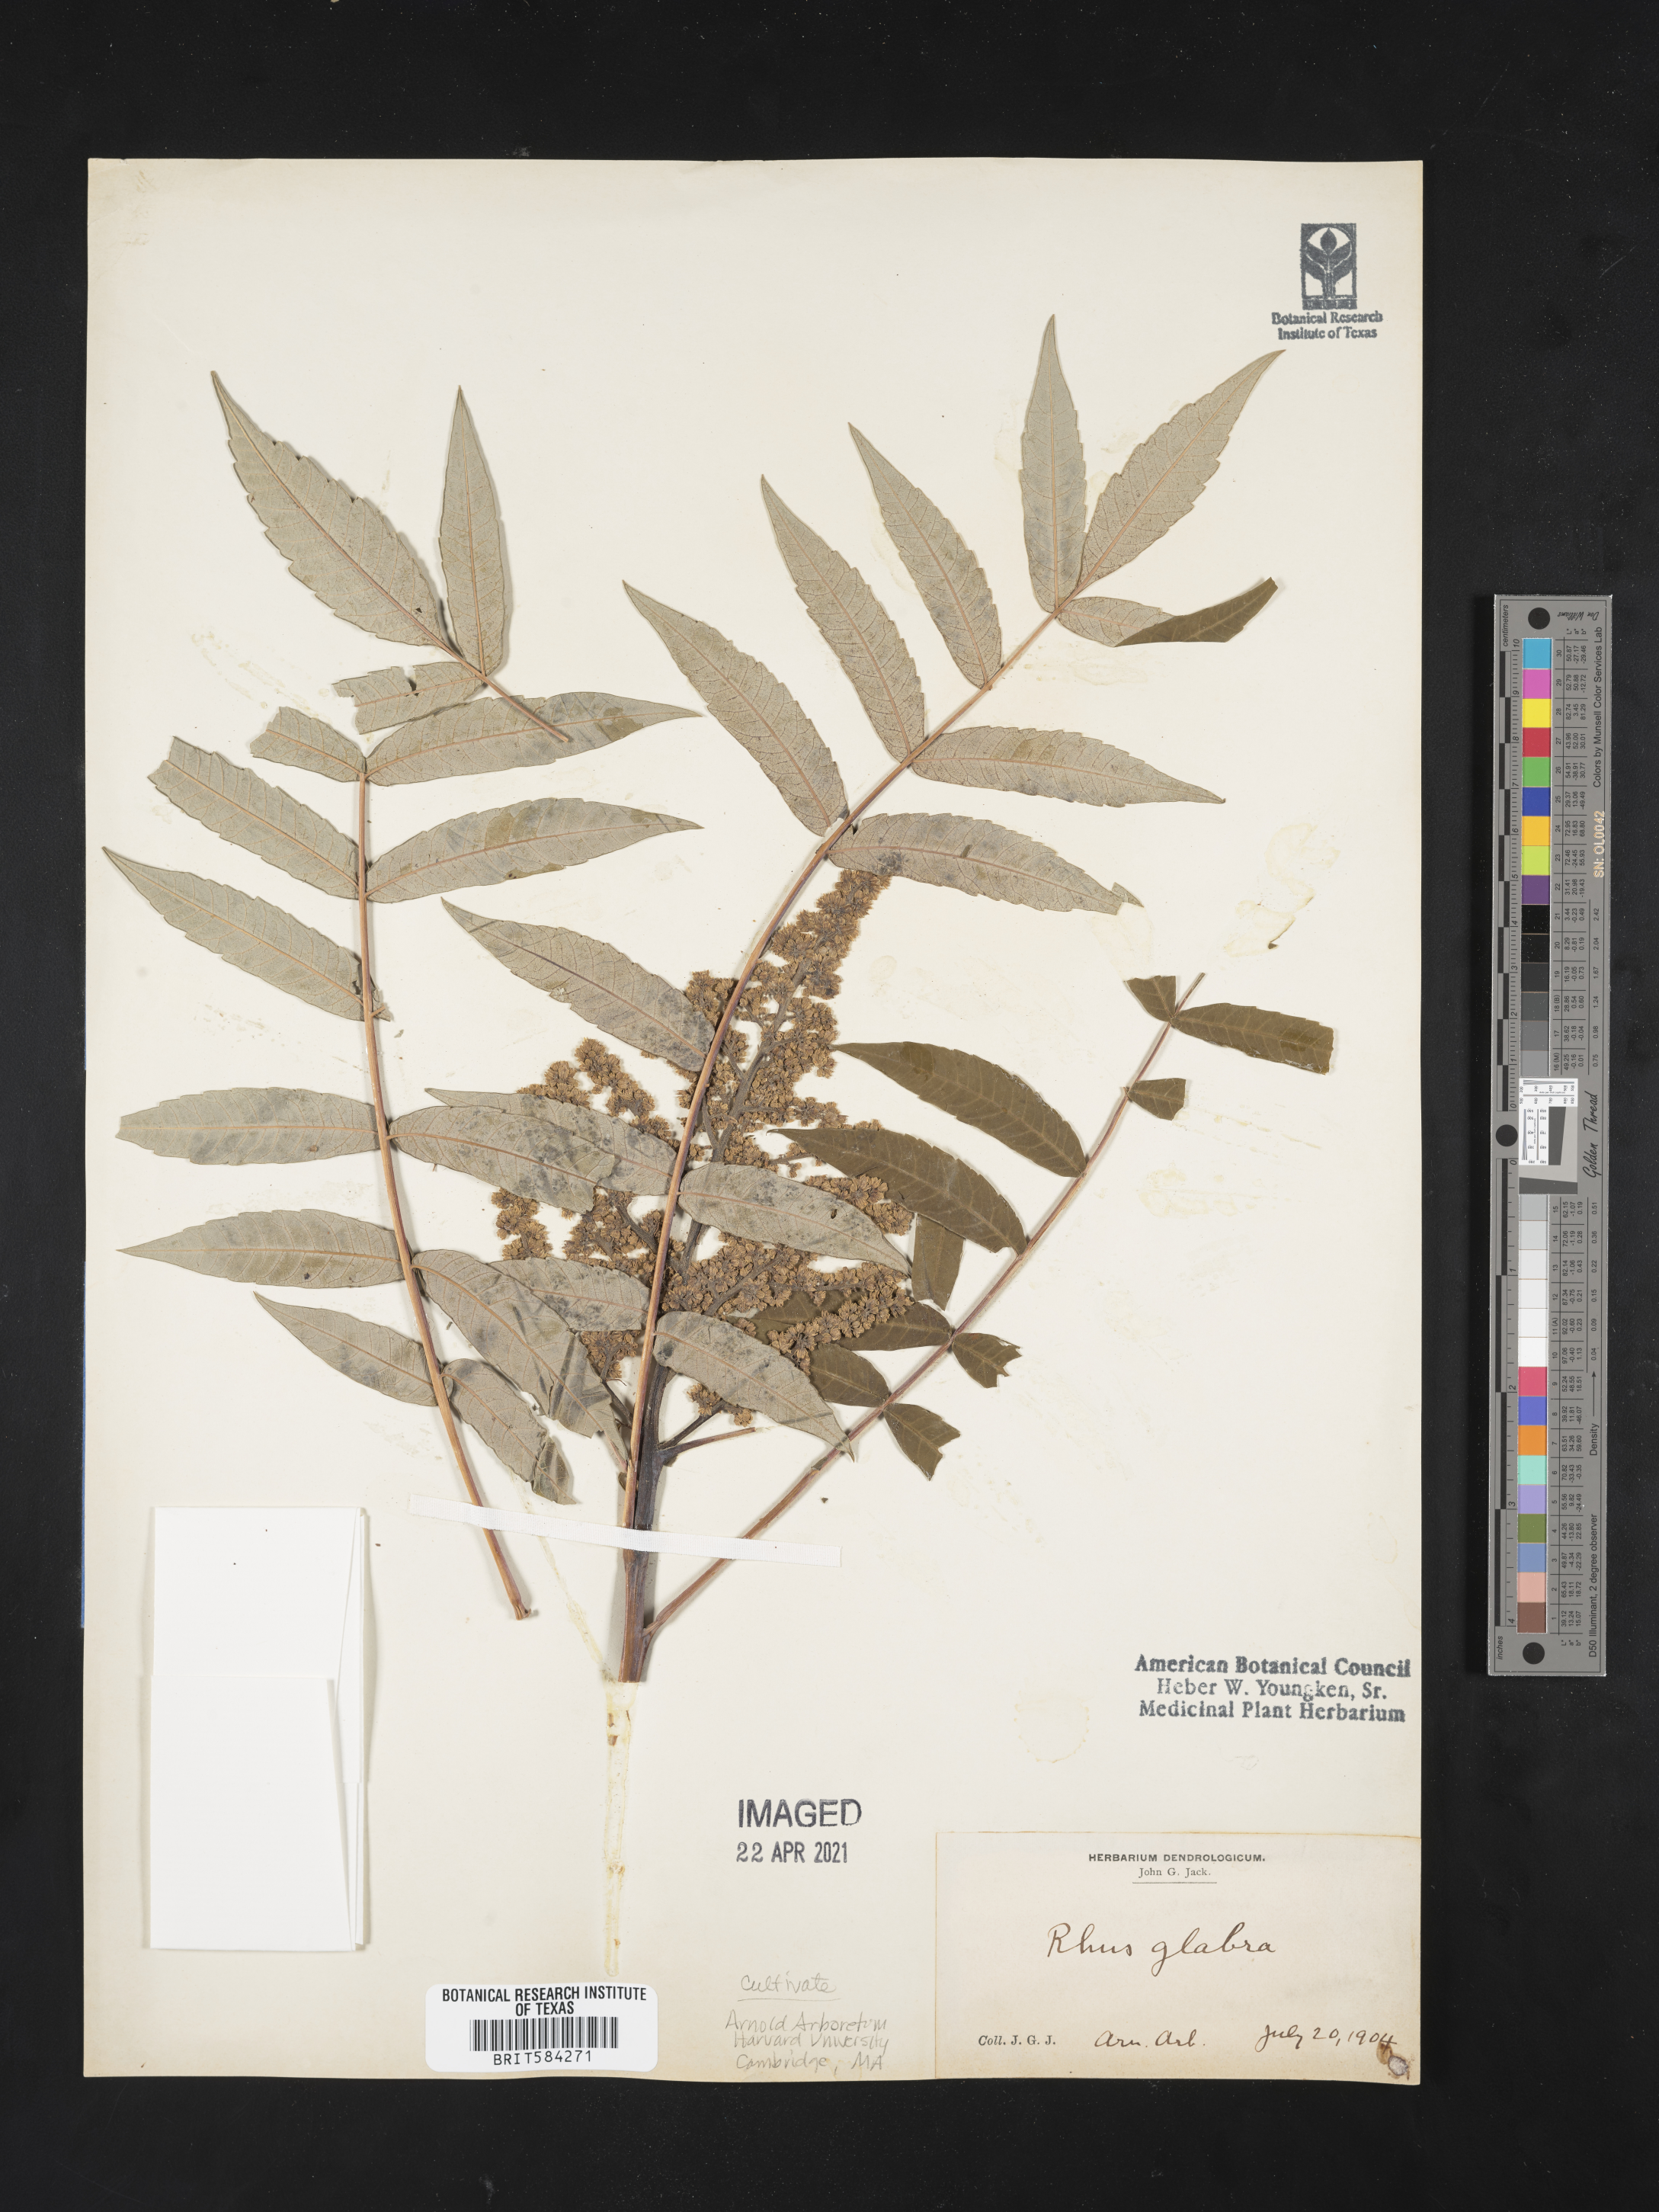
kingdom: Plantae
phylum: Tracheophyta
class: Magnoliopsida
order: Sapindales
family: Anacardiaceae
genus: Rhus
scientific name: Rhus glabra
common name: Scarlet sumac
